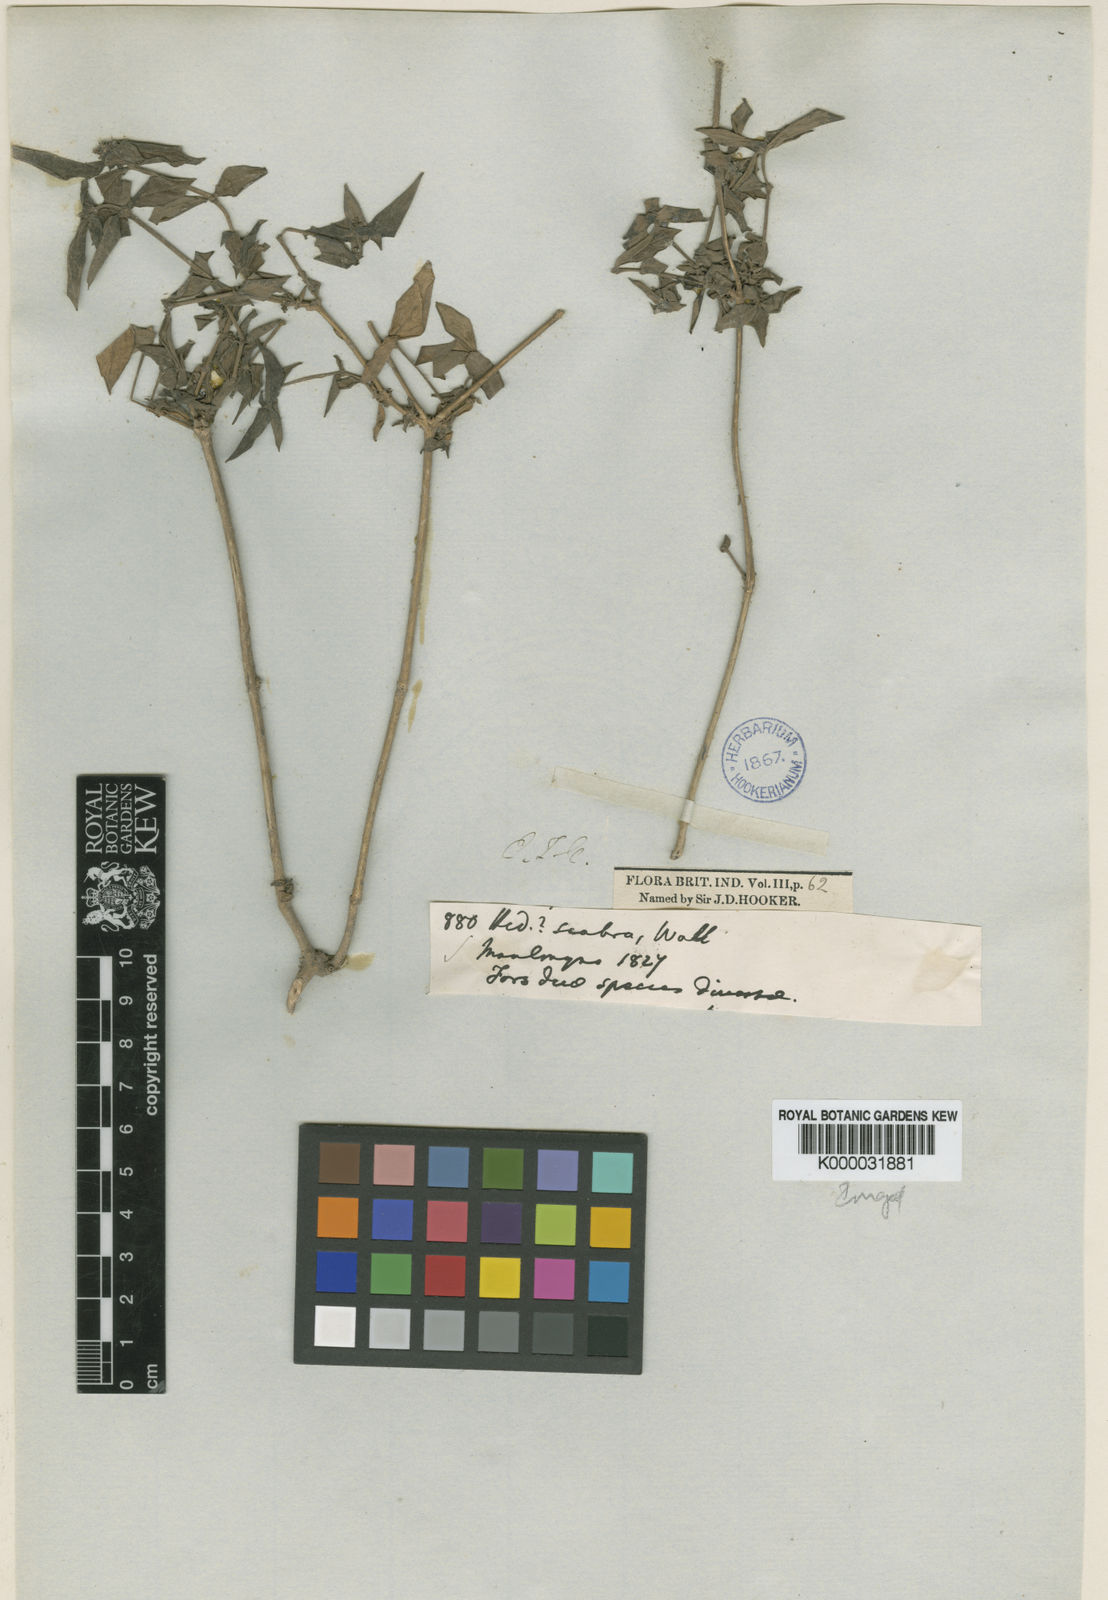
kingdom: Plantae
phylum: Tracheophyta
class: Magnoliopsida
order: Gentianales
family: Rubiaceae
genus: Exallage
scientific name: Exallage
